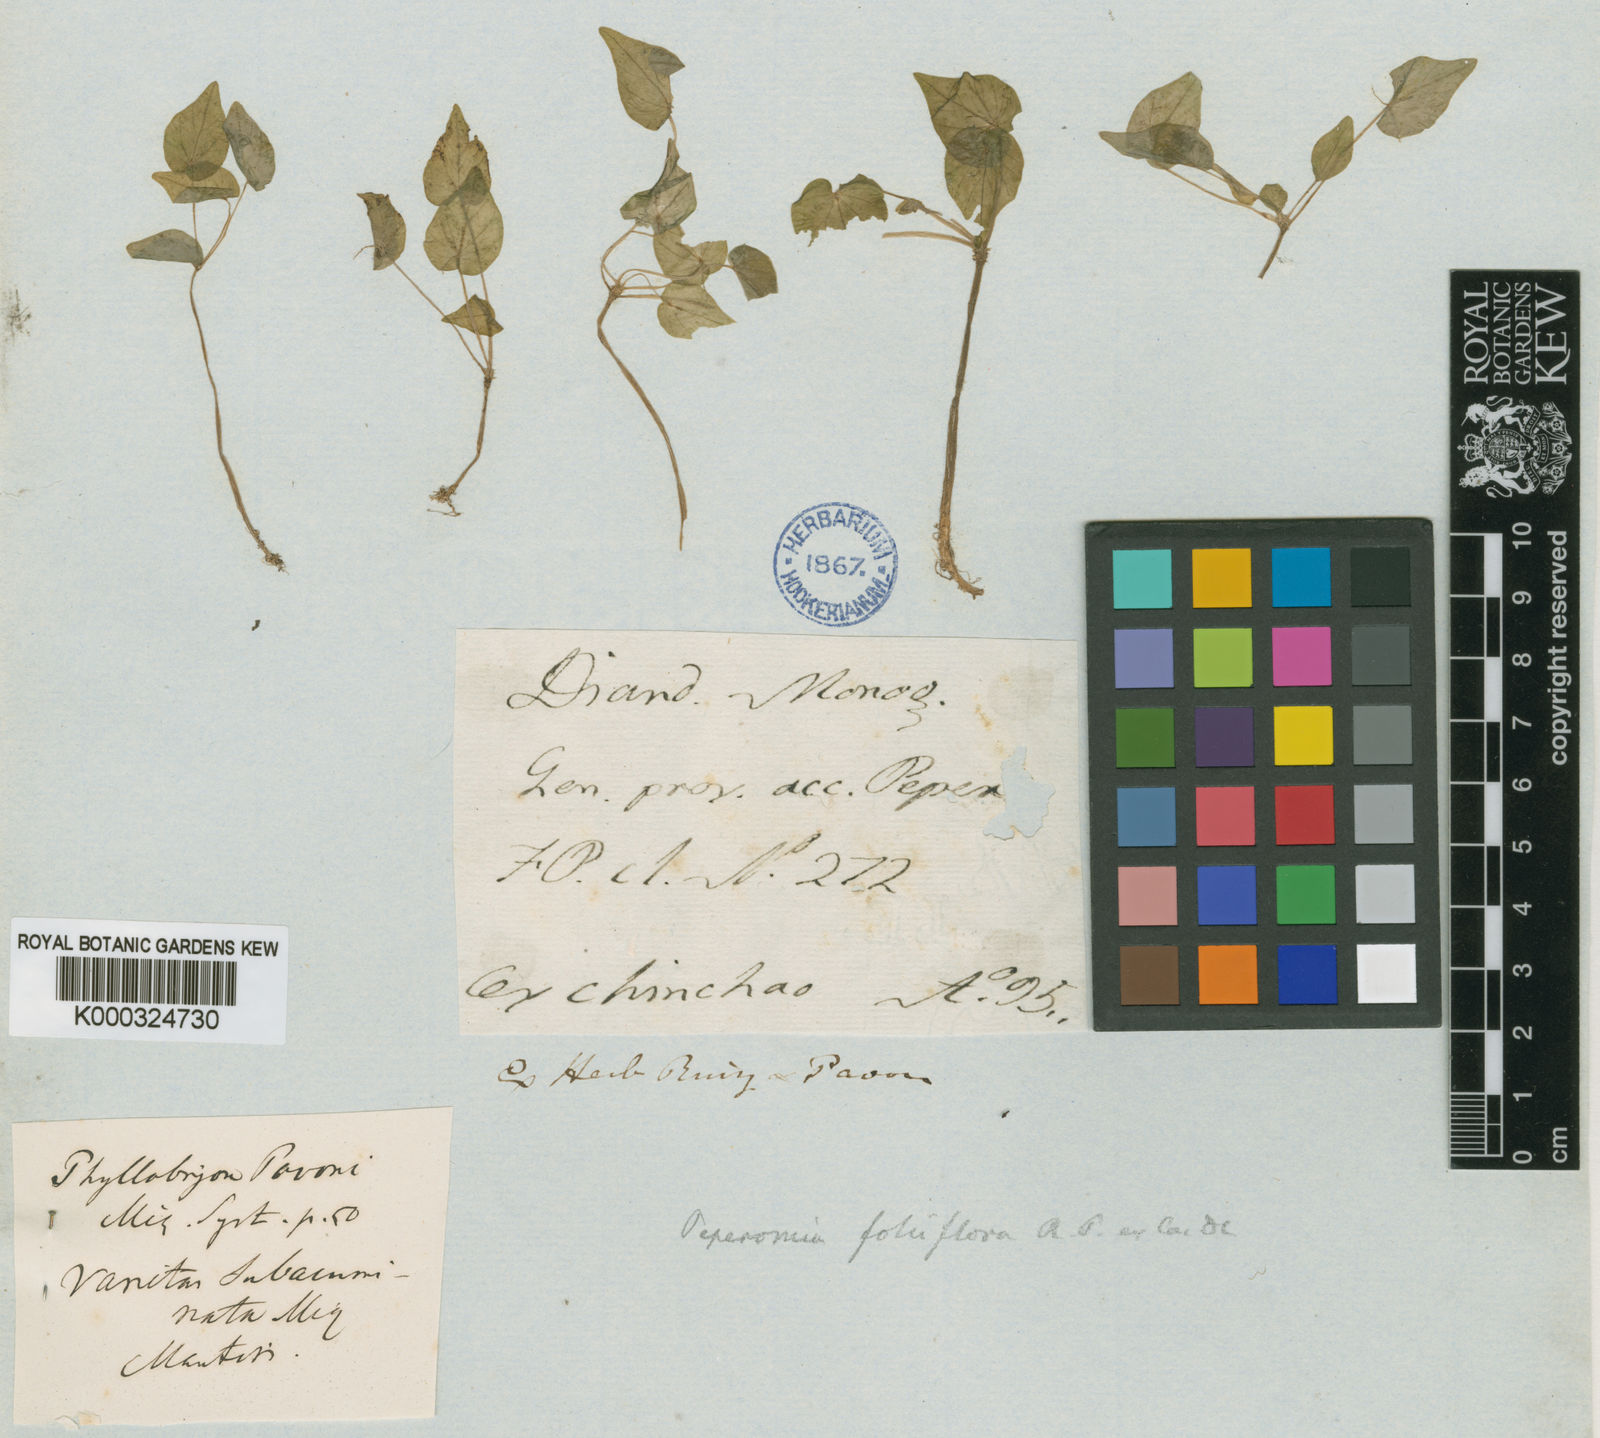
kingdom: Plantae
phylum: Tracheophyta
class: Magnoliopsida
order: Piperales
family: Piperaceae
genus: Peperomia
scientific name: Peperomia foliiflora
